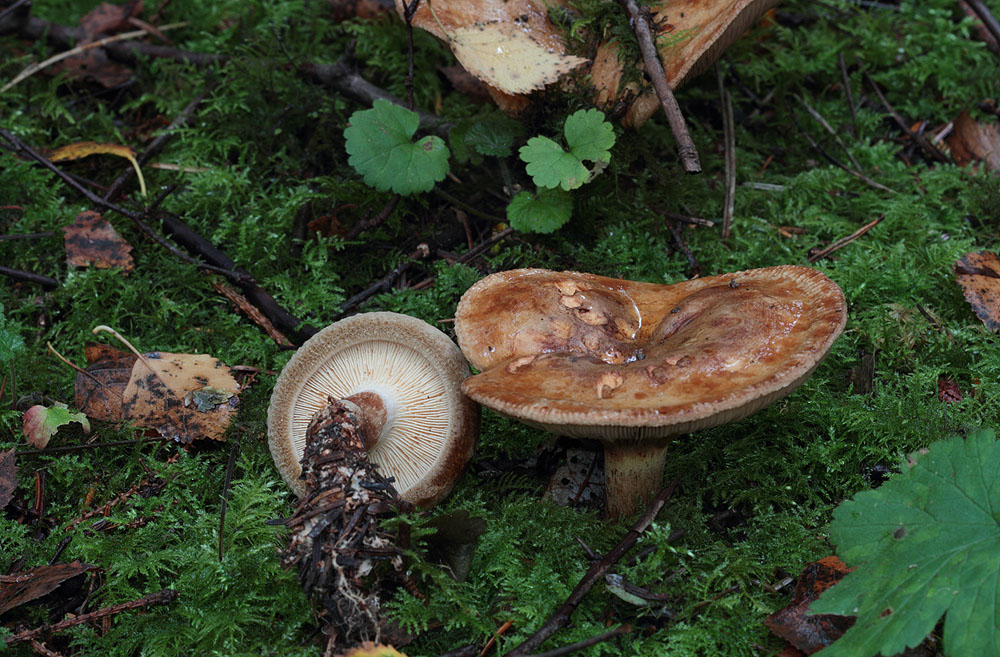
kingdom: Fungi
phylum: Basidiomycota
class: Agaricomycetes
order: Boletales
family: Paxillaceae
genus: Paxillus
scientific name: Paxillus involutus
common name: almindelig netbladhat
